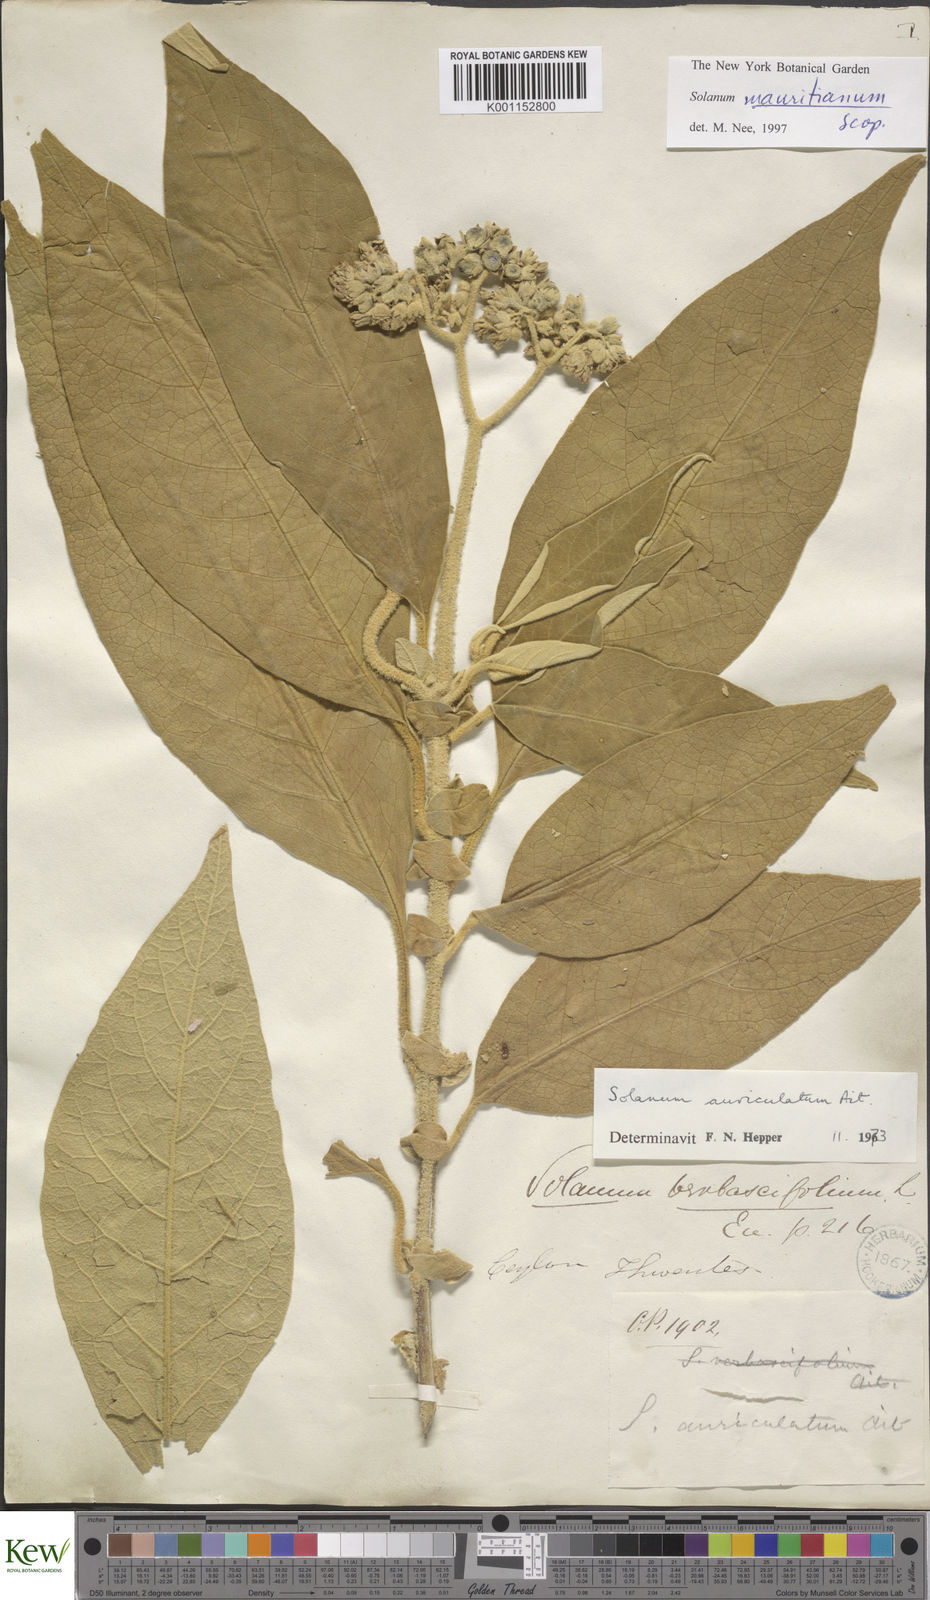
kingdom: Plantae
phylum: Tracheophyta
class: Magnoliopsida
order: Solanales
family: Solanaceae
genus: Solanum
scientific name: Solanum mauritianum
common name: Earleaf nightshade
